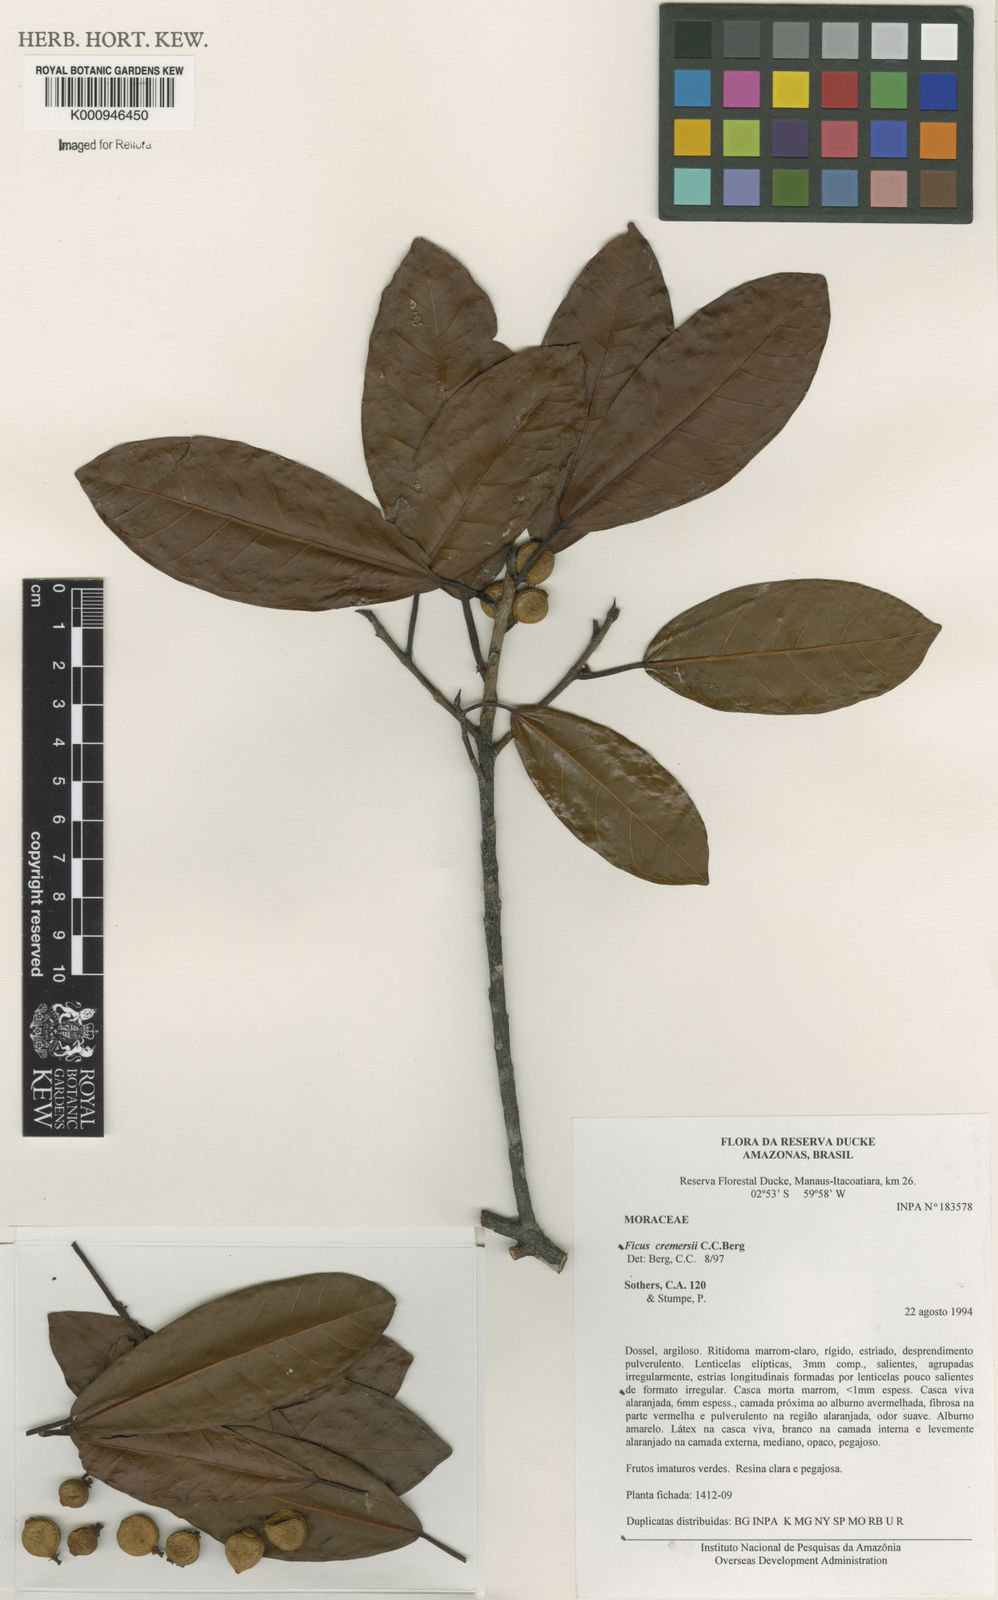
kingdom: Plantae
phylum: Tracheophyta
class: Magnoliopsida
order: Rosales
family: Moraceae
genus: Ficus
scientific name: Ficus cremersii
